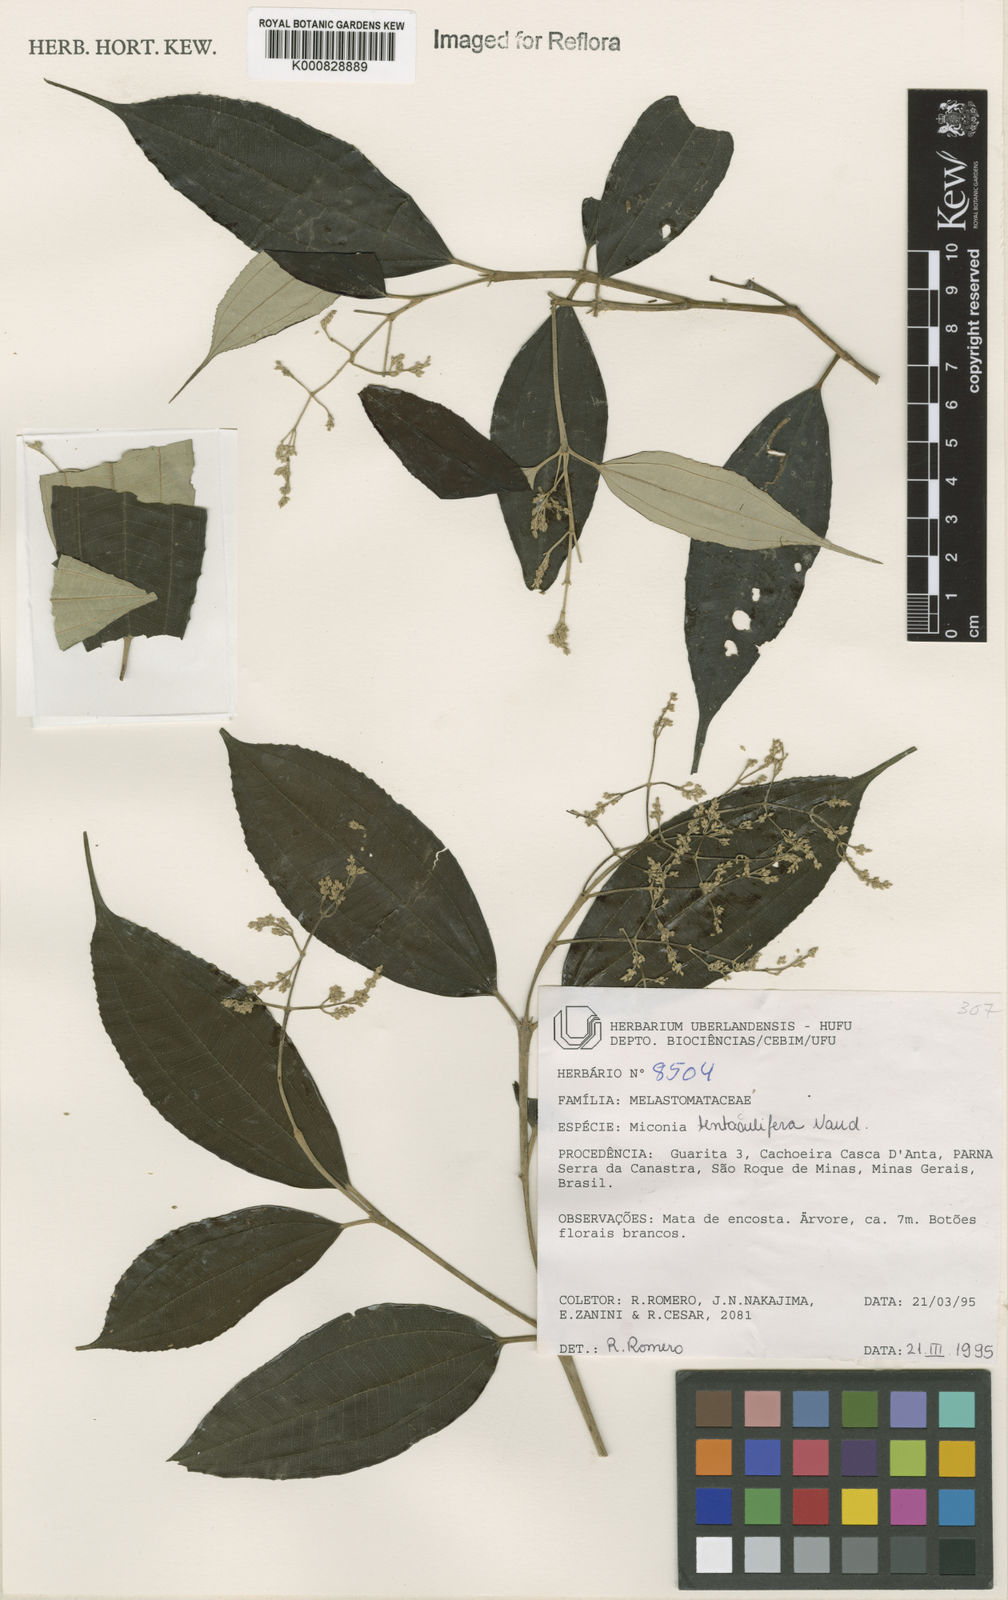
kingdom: Plantae
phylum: Tracheophyta
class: Magnoliopsida
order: Myrtales
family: Melastomataceae
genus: Miconia
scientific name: Miconia tentaculifera
